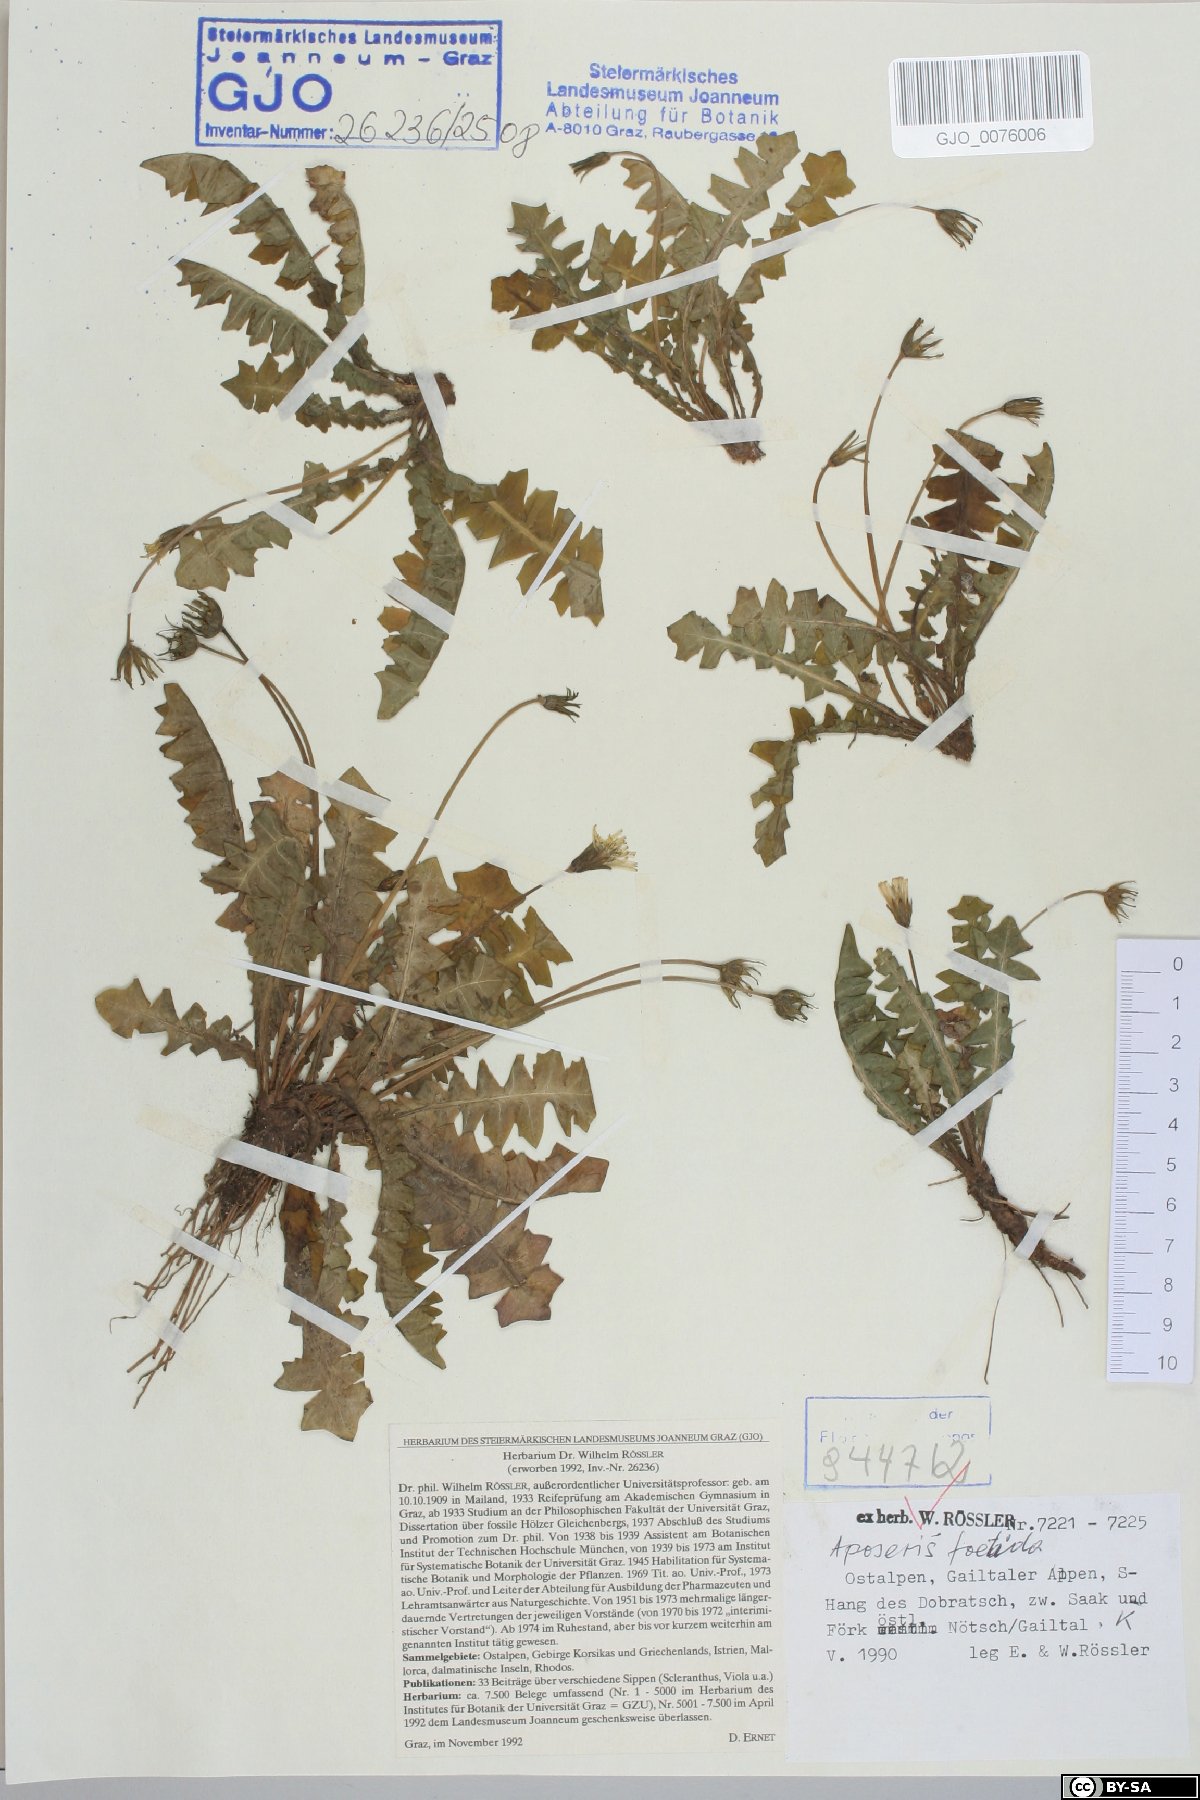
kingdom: Plantae
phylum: Tracheophyta
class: Magnoliopsida
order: Asterales
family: Asteraceae
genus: Aposeris
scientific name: Aposeris foetida
